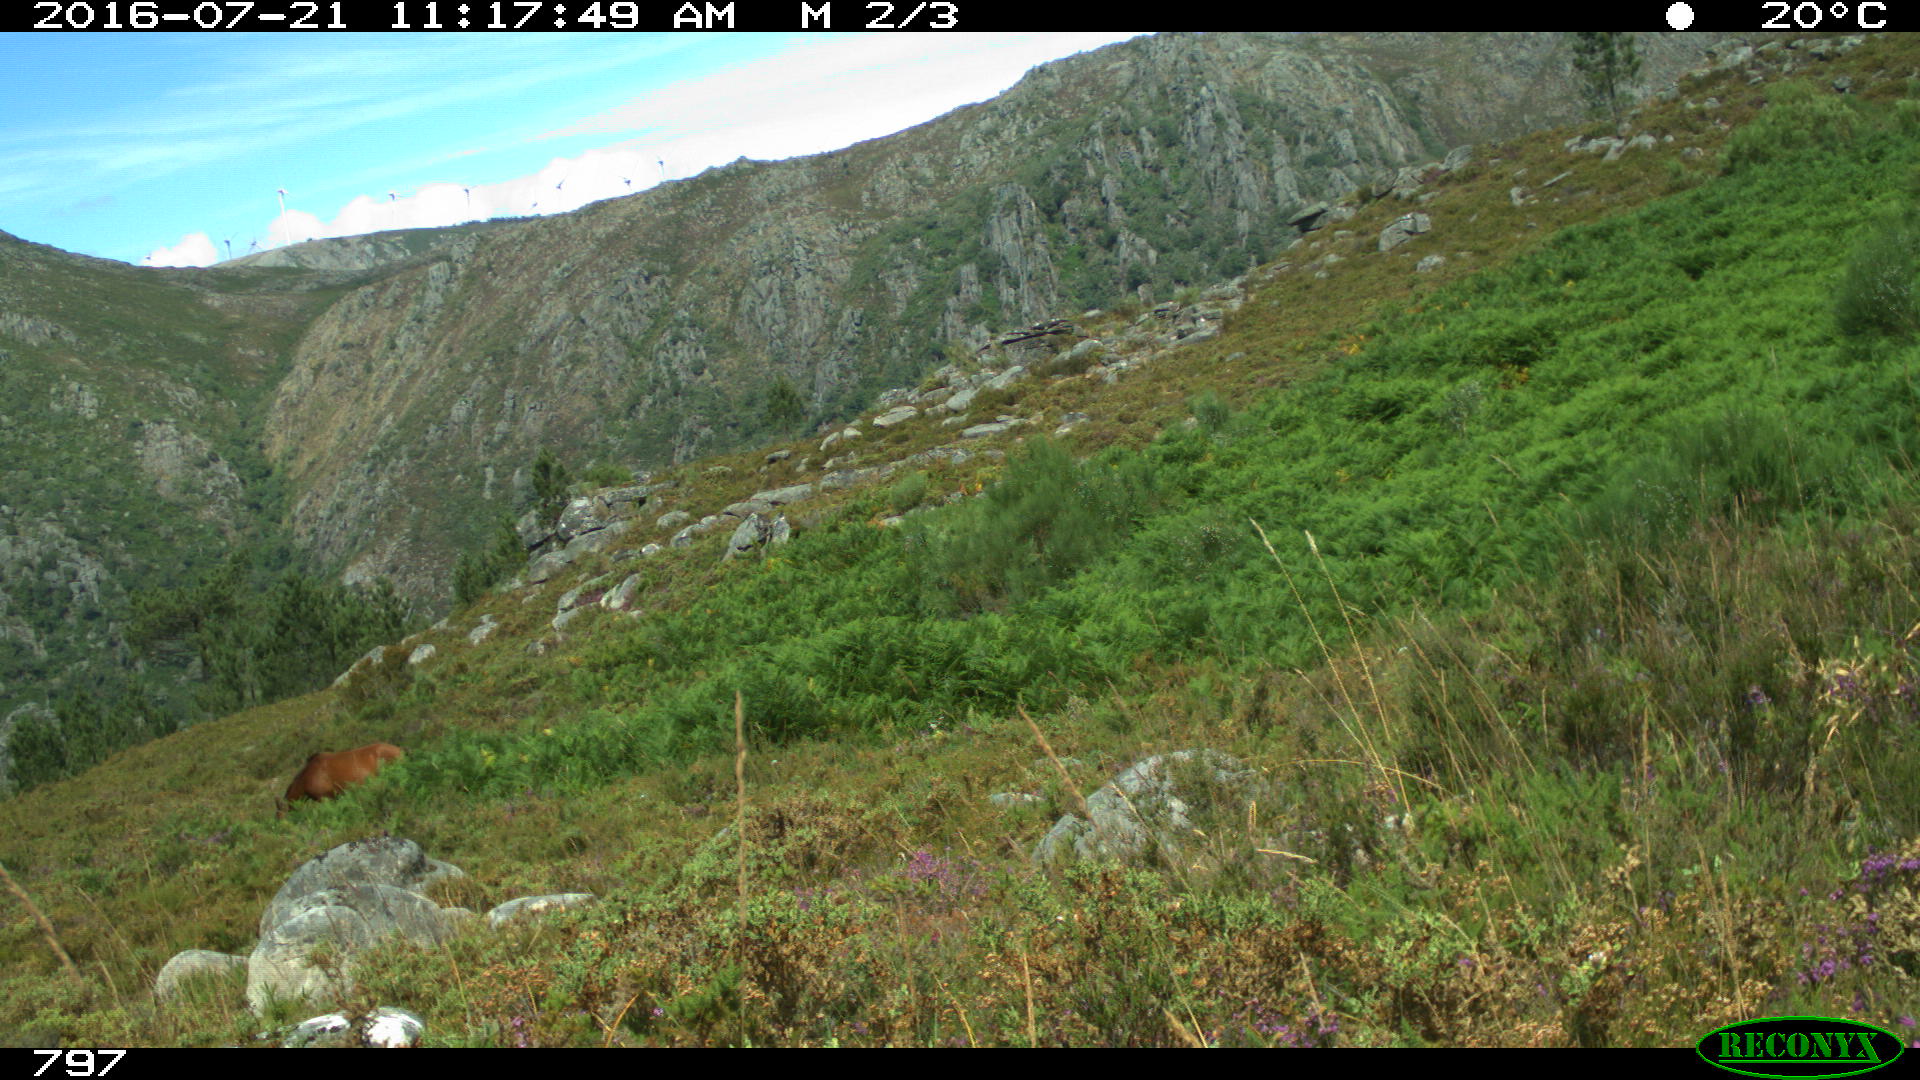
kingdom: Animalia
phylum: Chordata
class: Mammalia
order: Perissodactyla
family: Equidae
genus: Equus
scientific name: Equus caballus
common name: Horse
